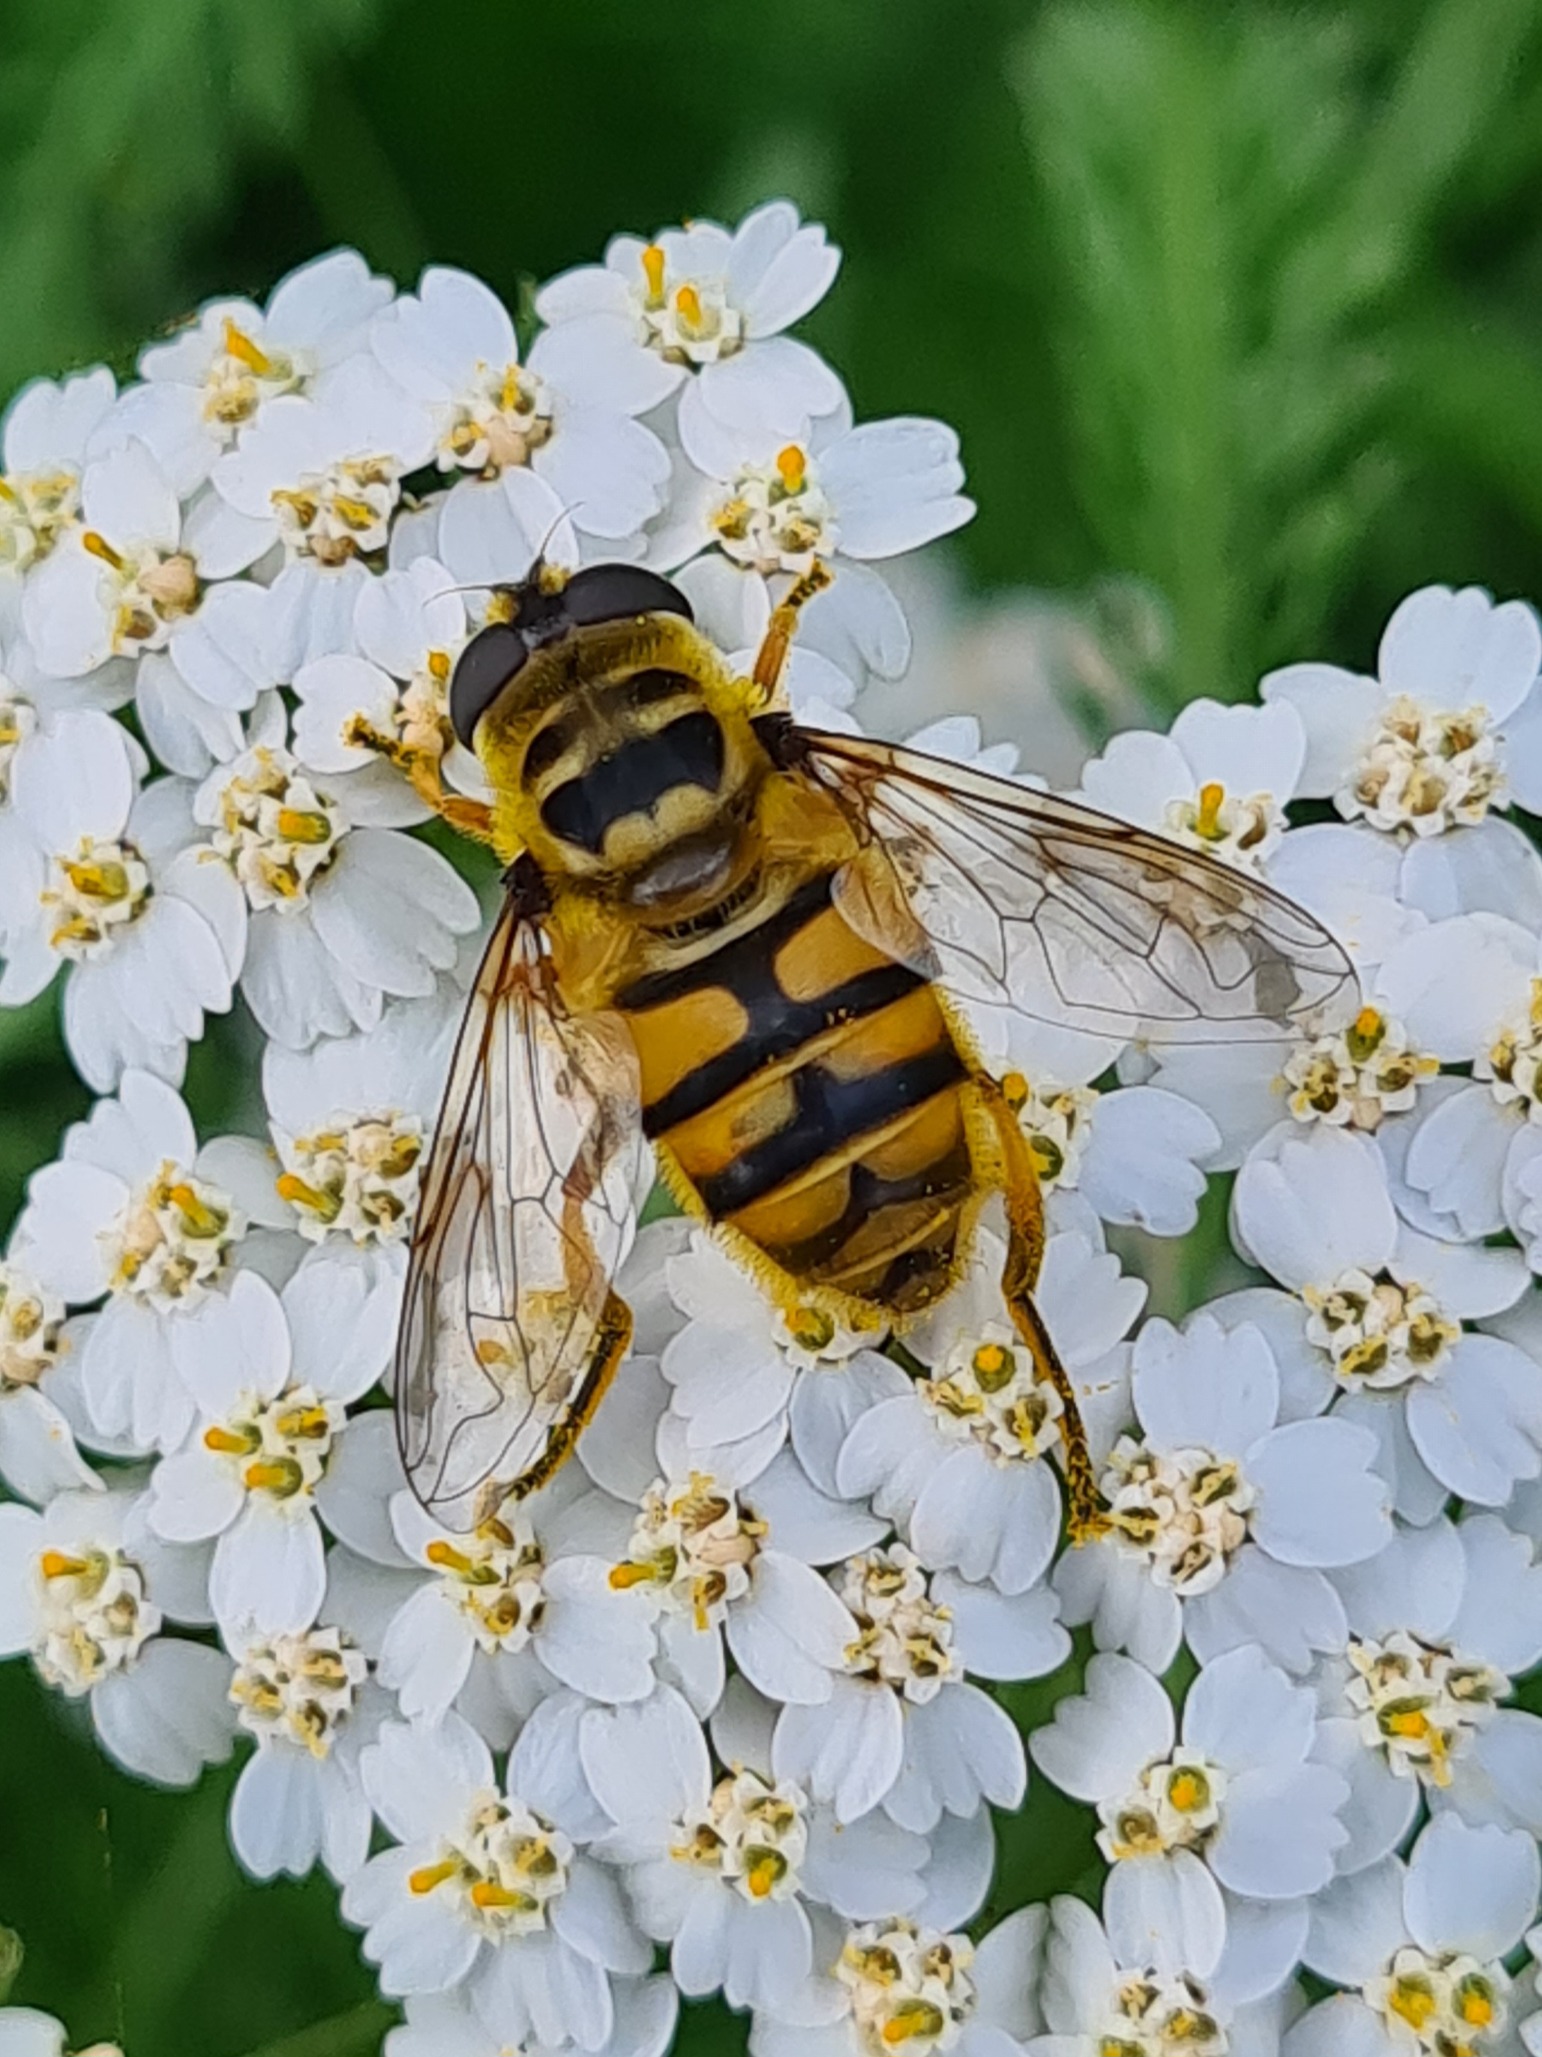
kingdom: Animalia
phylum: Arthropoda
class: Insecta
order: Diptera
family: Syrphidae
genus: Myathropa
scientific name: Myathropa florea
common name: Dødningehoved-svirreflue
